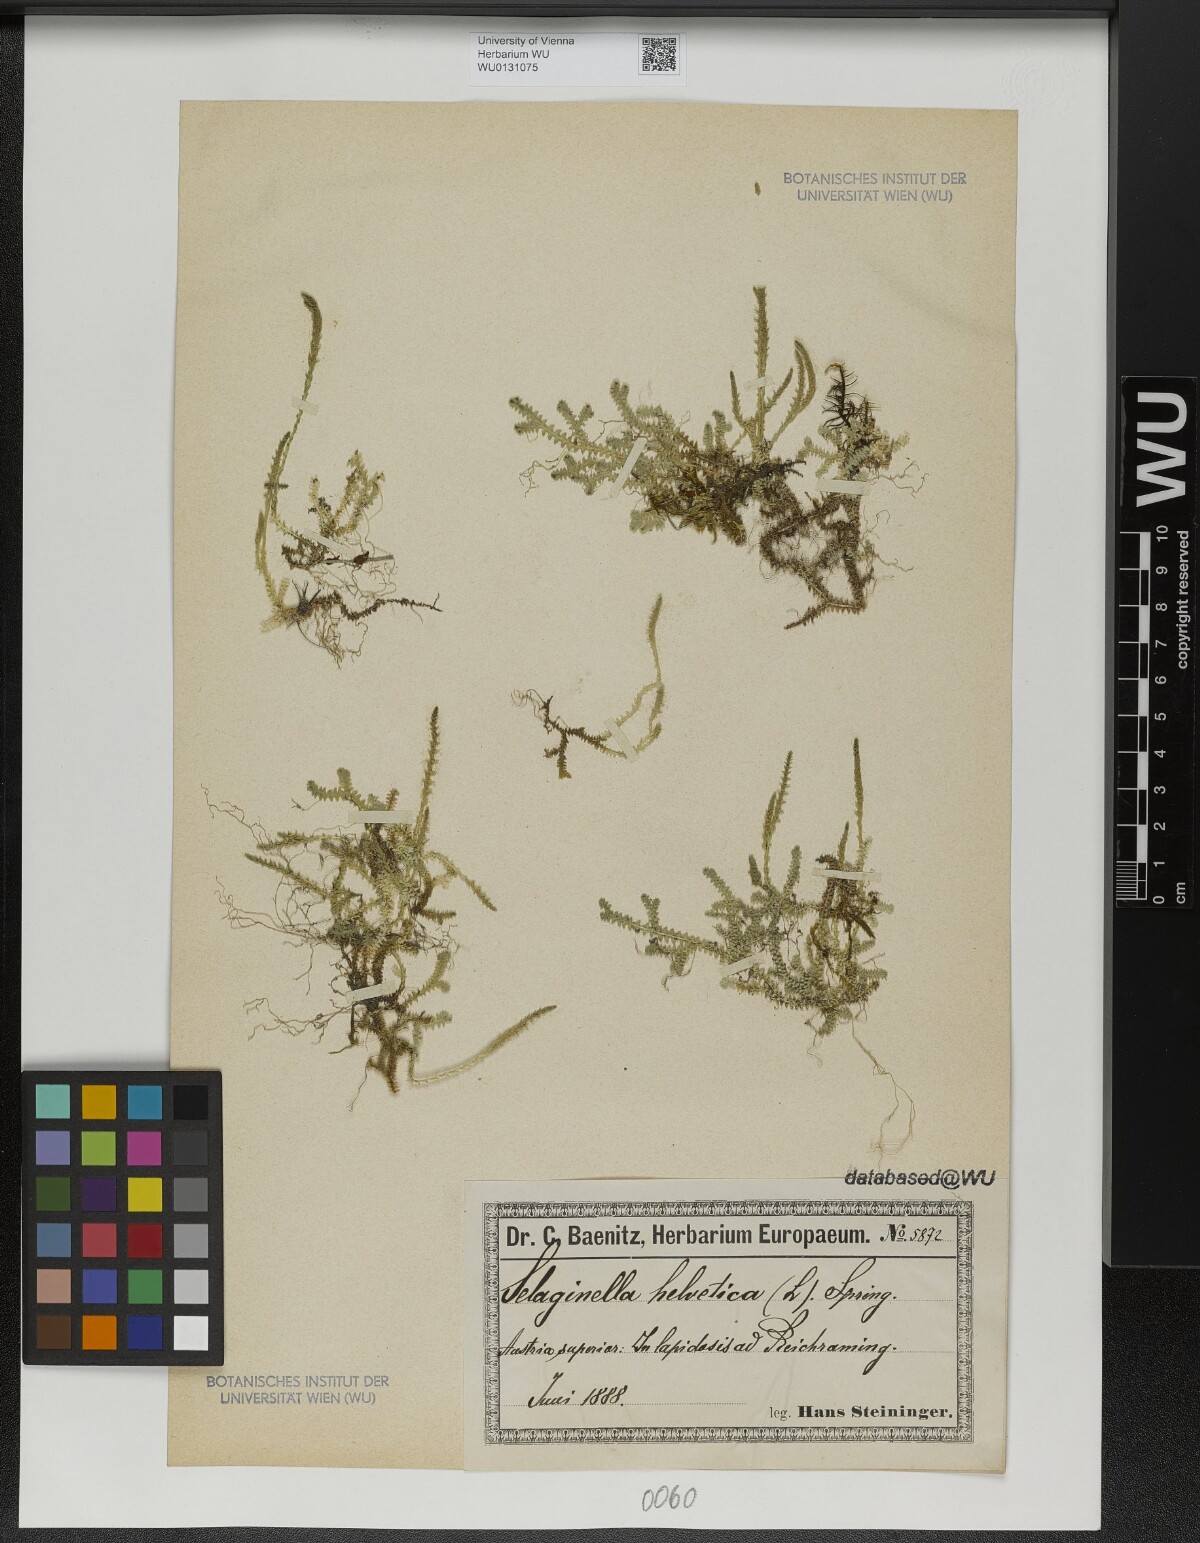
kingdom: Plantae
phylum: Tracheophyta
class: Lycopodiopsida
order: Selaginellales
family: Selaginellaceae
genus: Selaginella
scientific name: Selaginella helvetica
